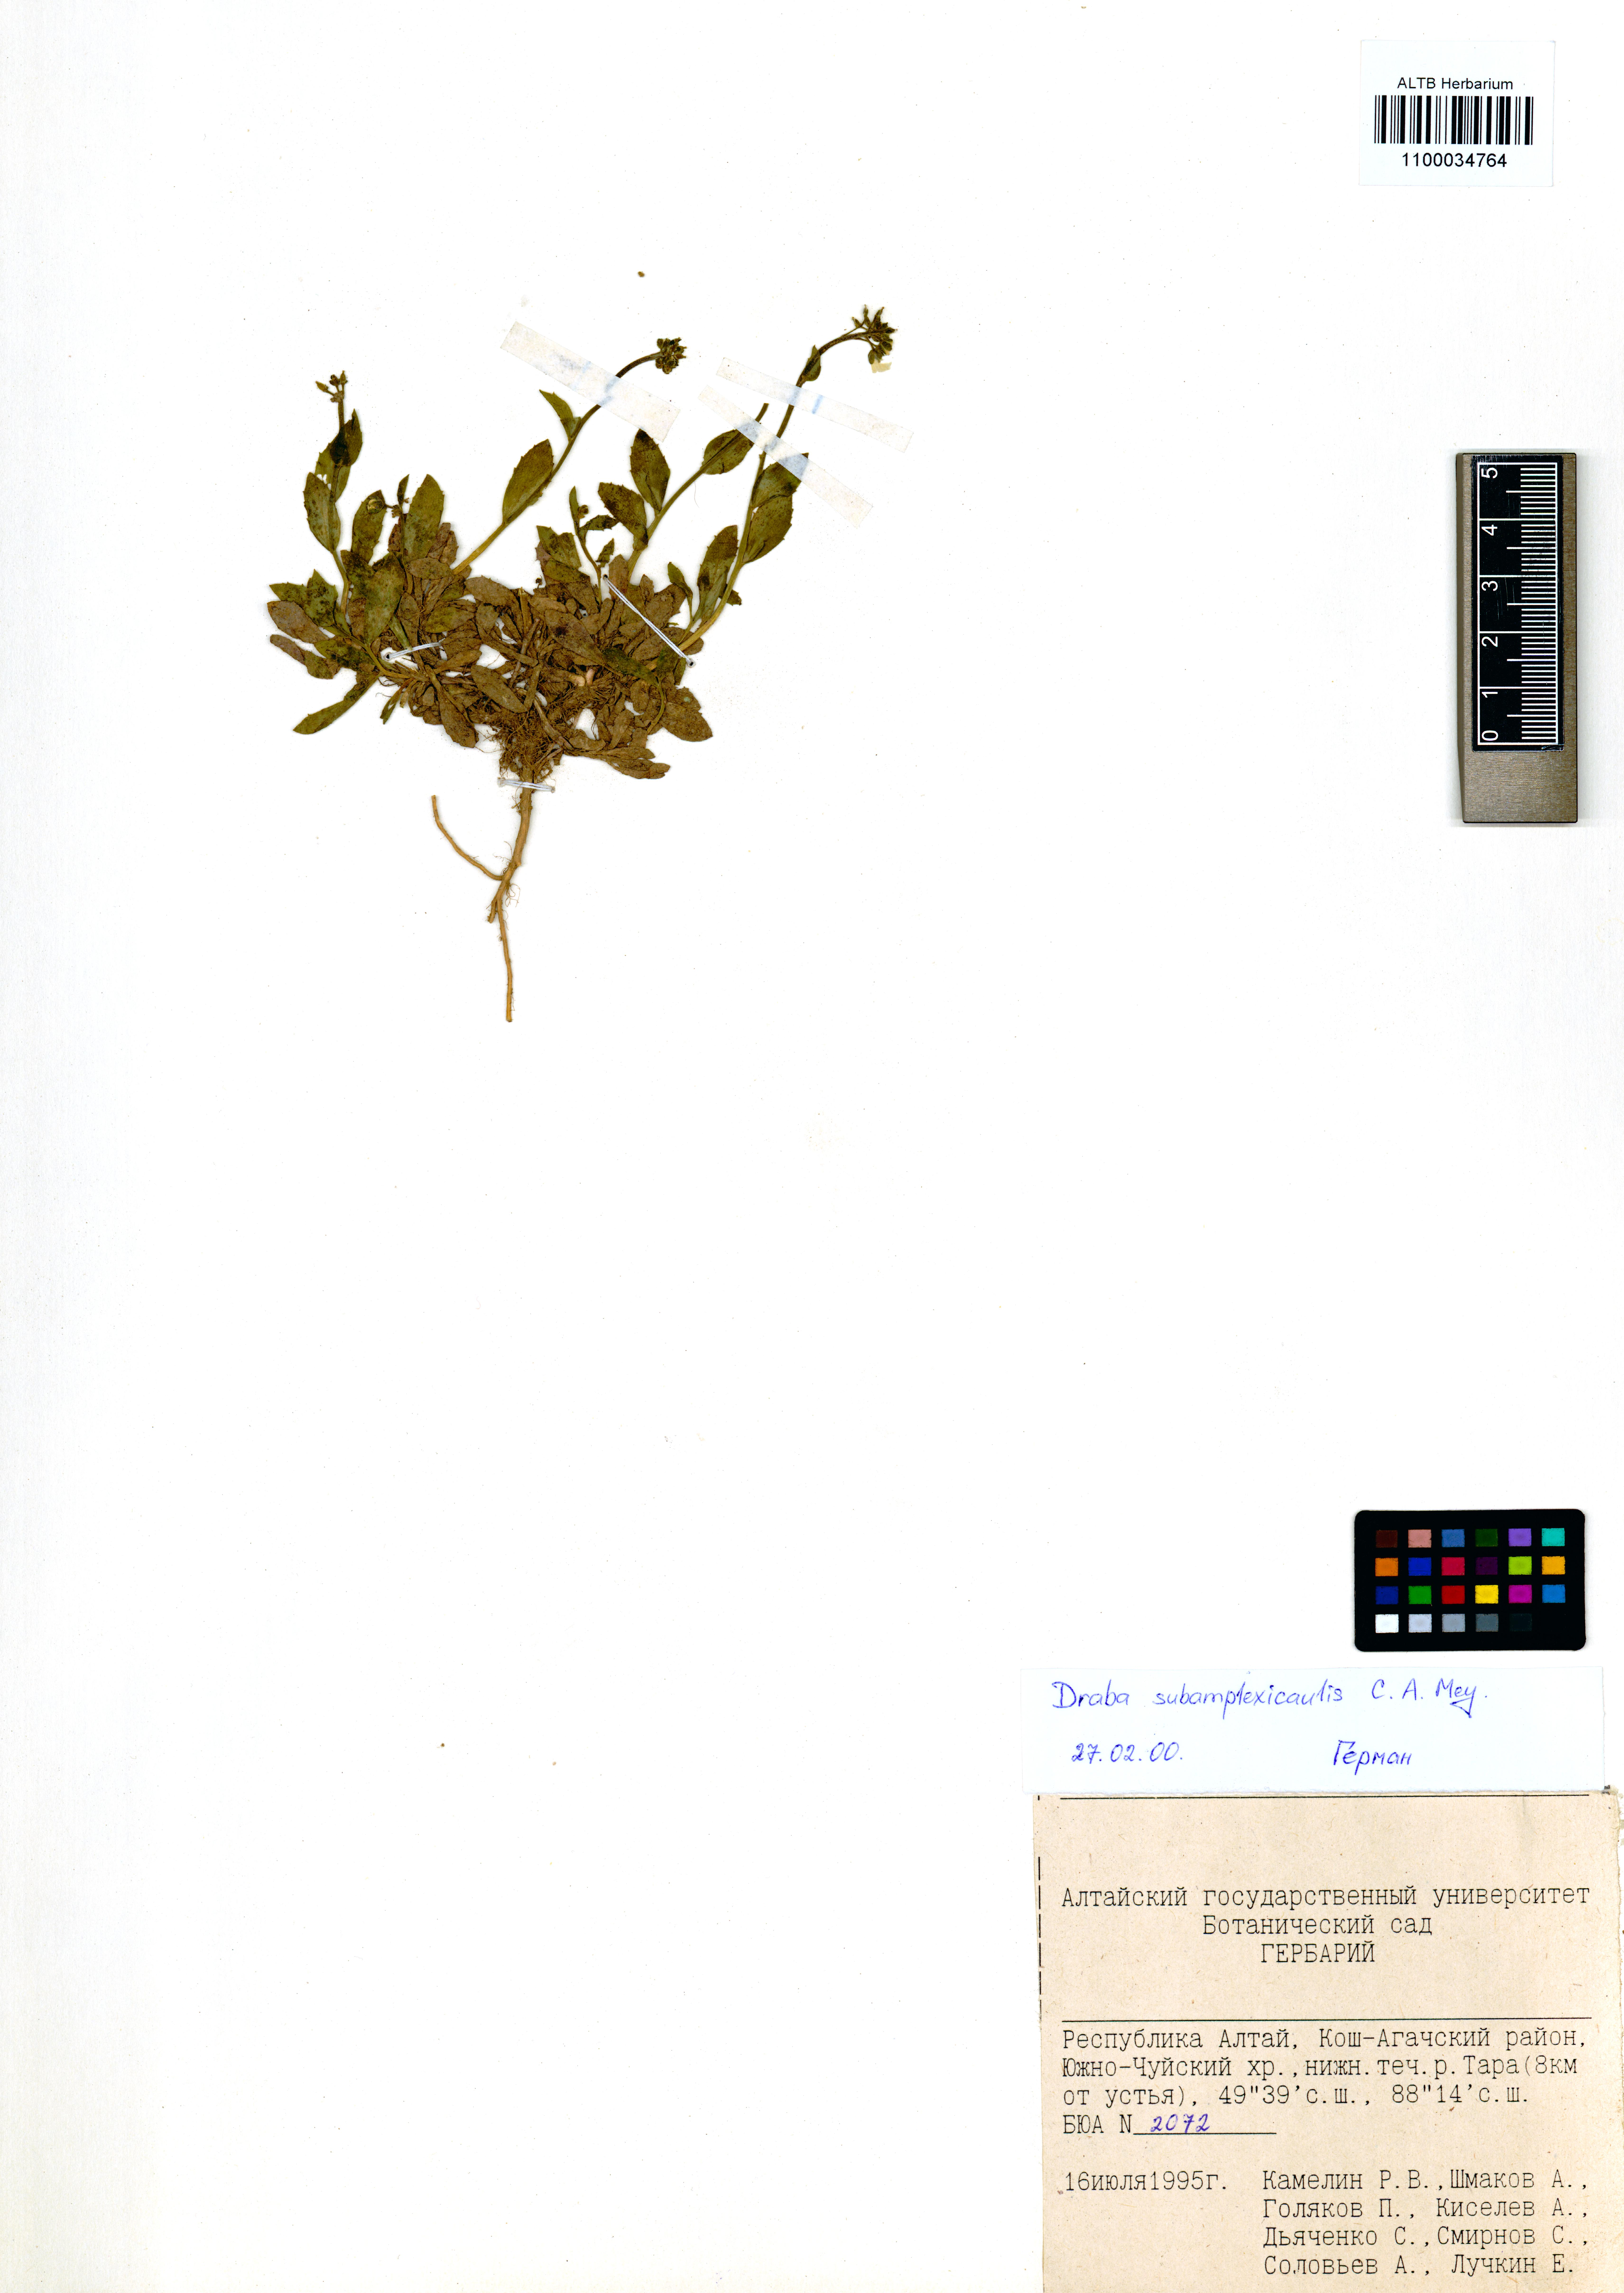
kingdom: Plantae
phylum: Tracheophyta
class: Magnoliopsida
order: Brassicales
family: Brassicaceae
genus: Draba
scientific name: Draba subamplexicaulis
